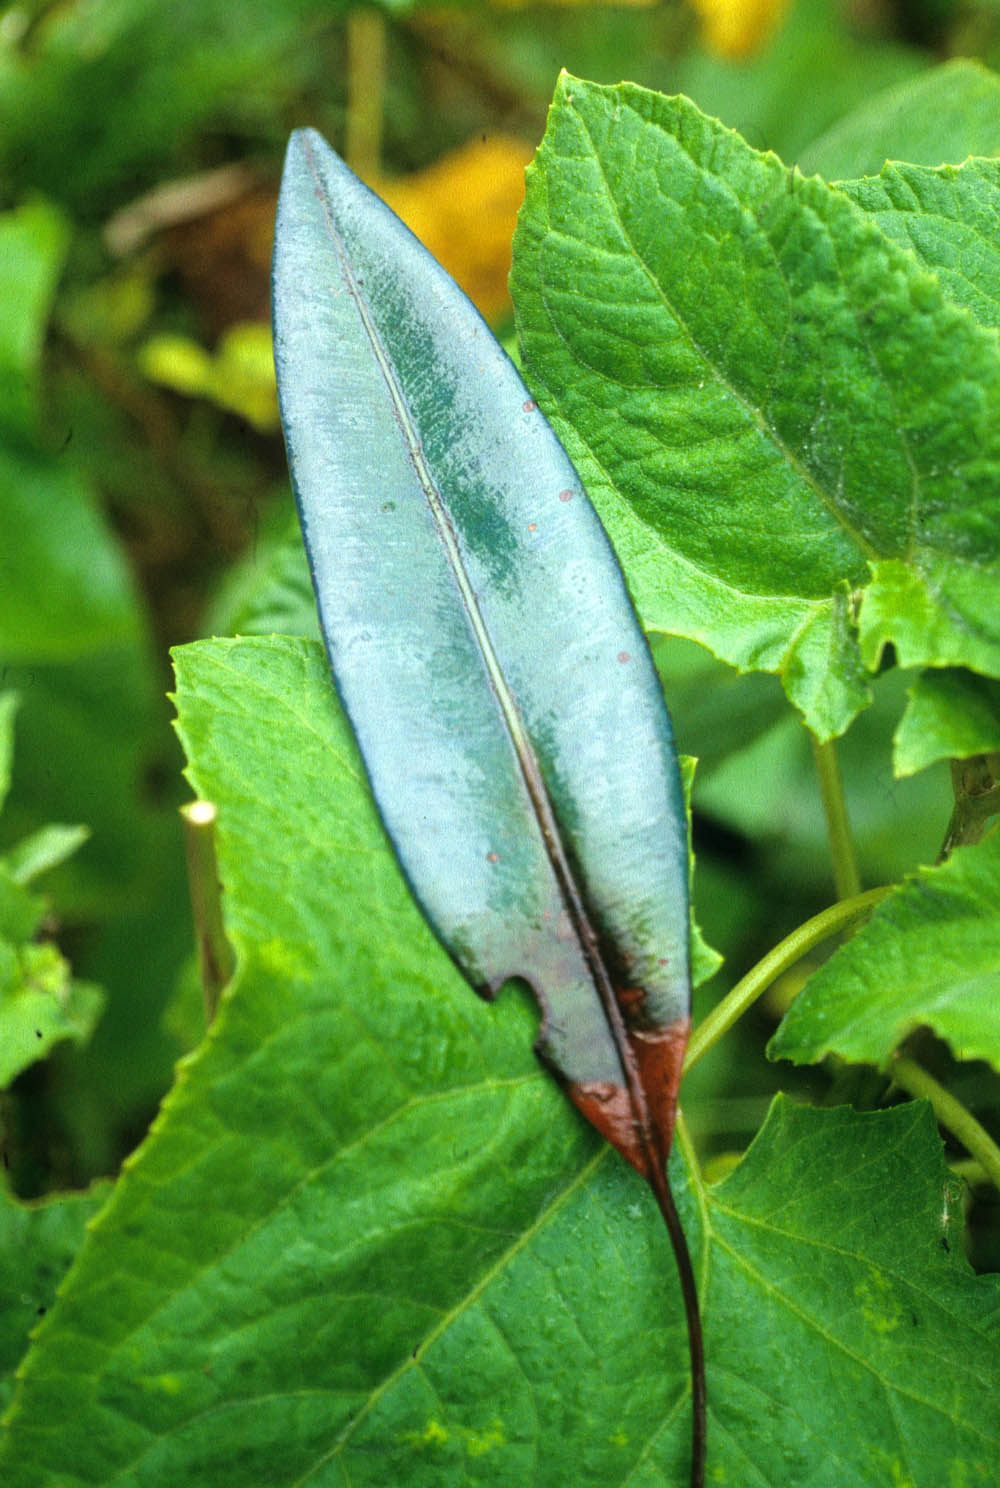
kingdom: Plantae
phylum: Tracheophyta
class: Polypodiopsida
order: Polypodiales
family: Dryopteridaceae
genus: Elaphoglossum
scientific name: Elaphoglossum
